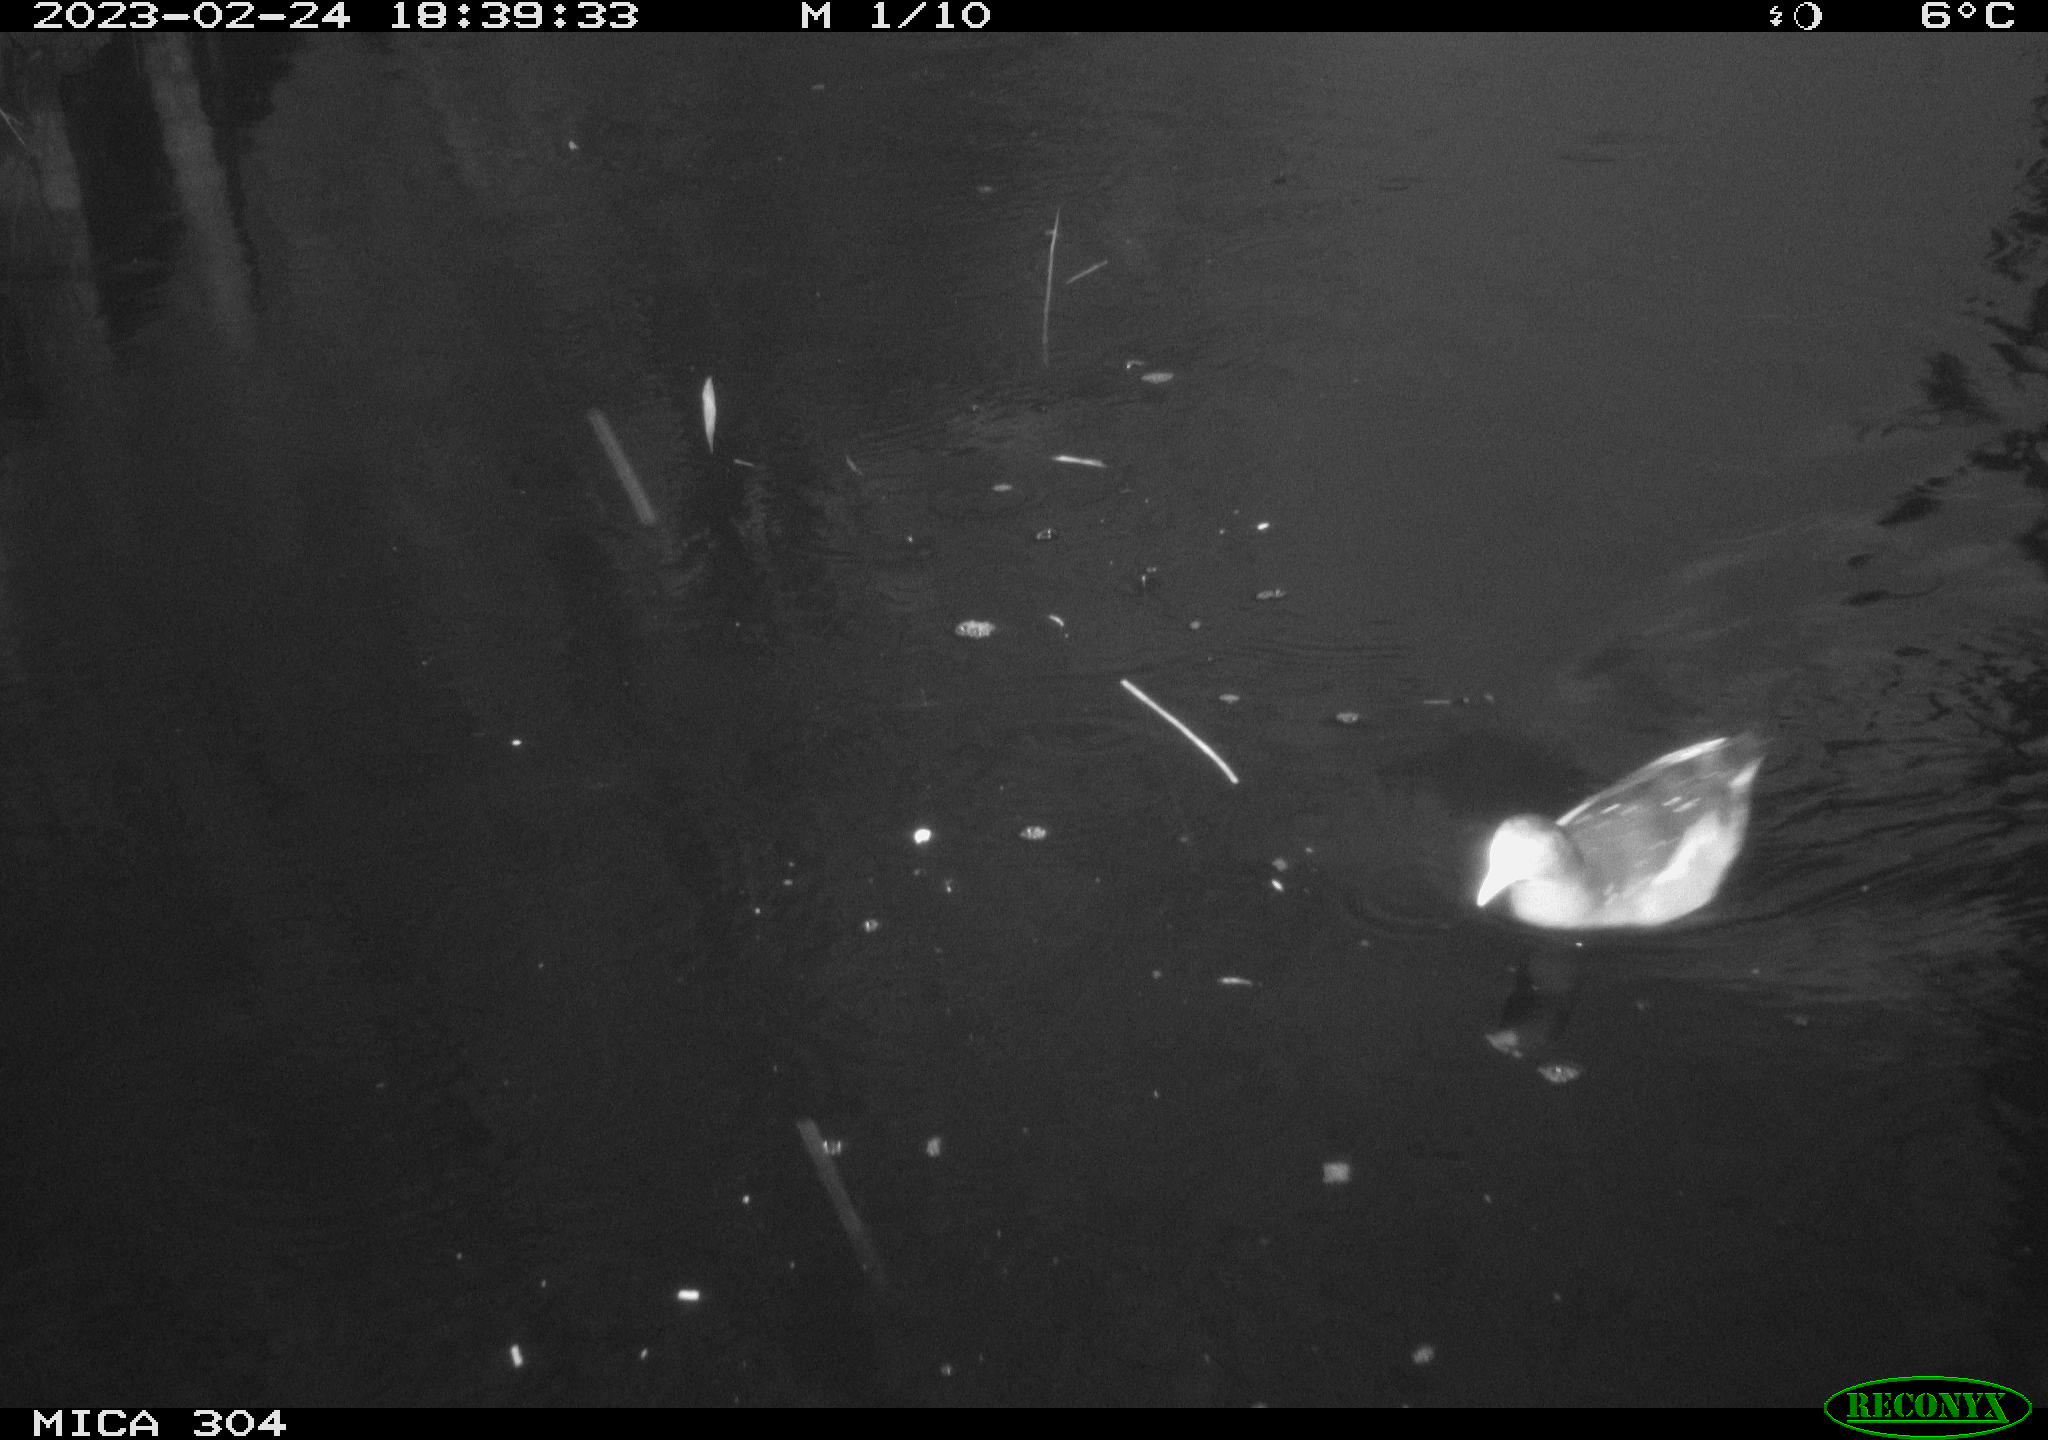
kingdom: Animalia
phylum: Chordata
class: Aves
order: Gruiformes
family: Rallidae
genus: Gallinula
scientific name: Gallinula chloropus
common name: Common moorhen
